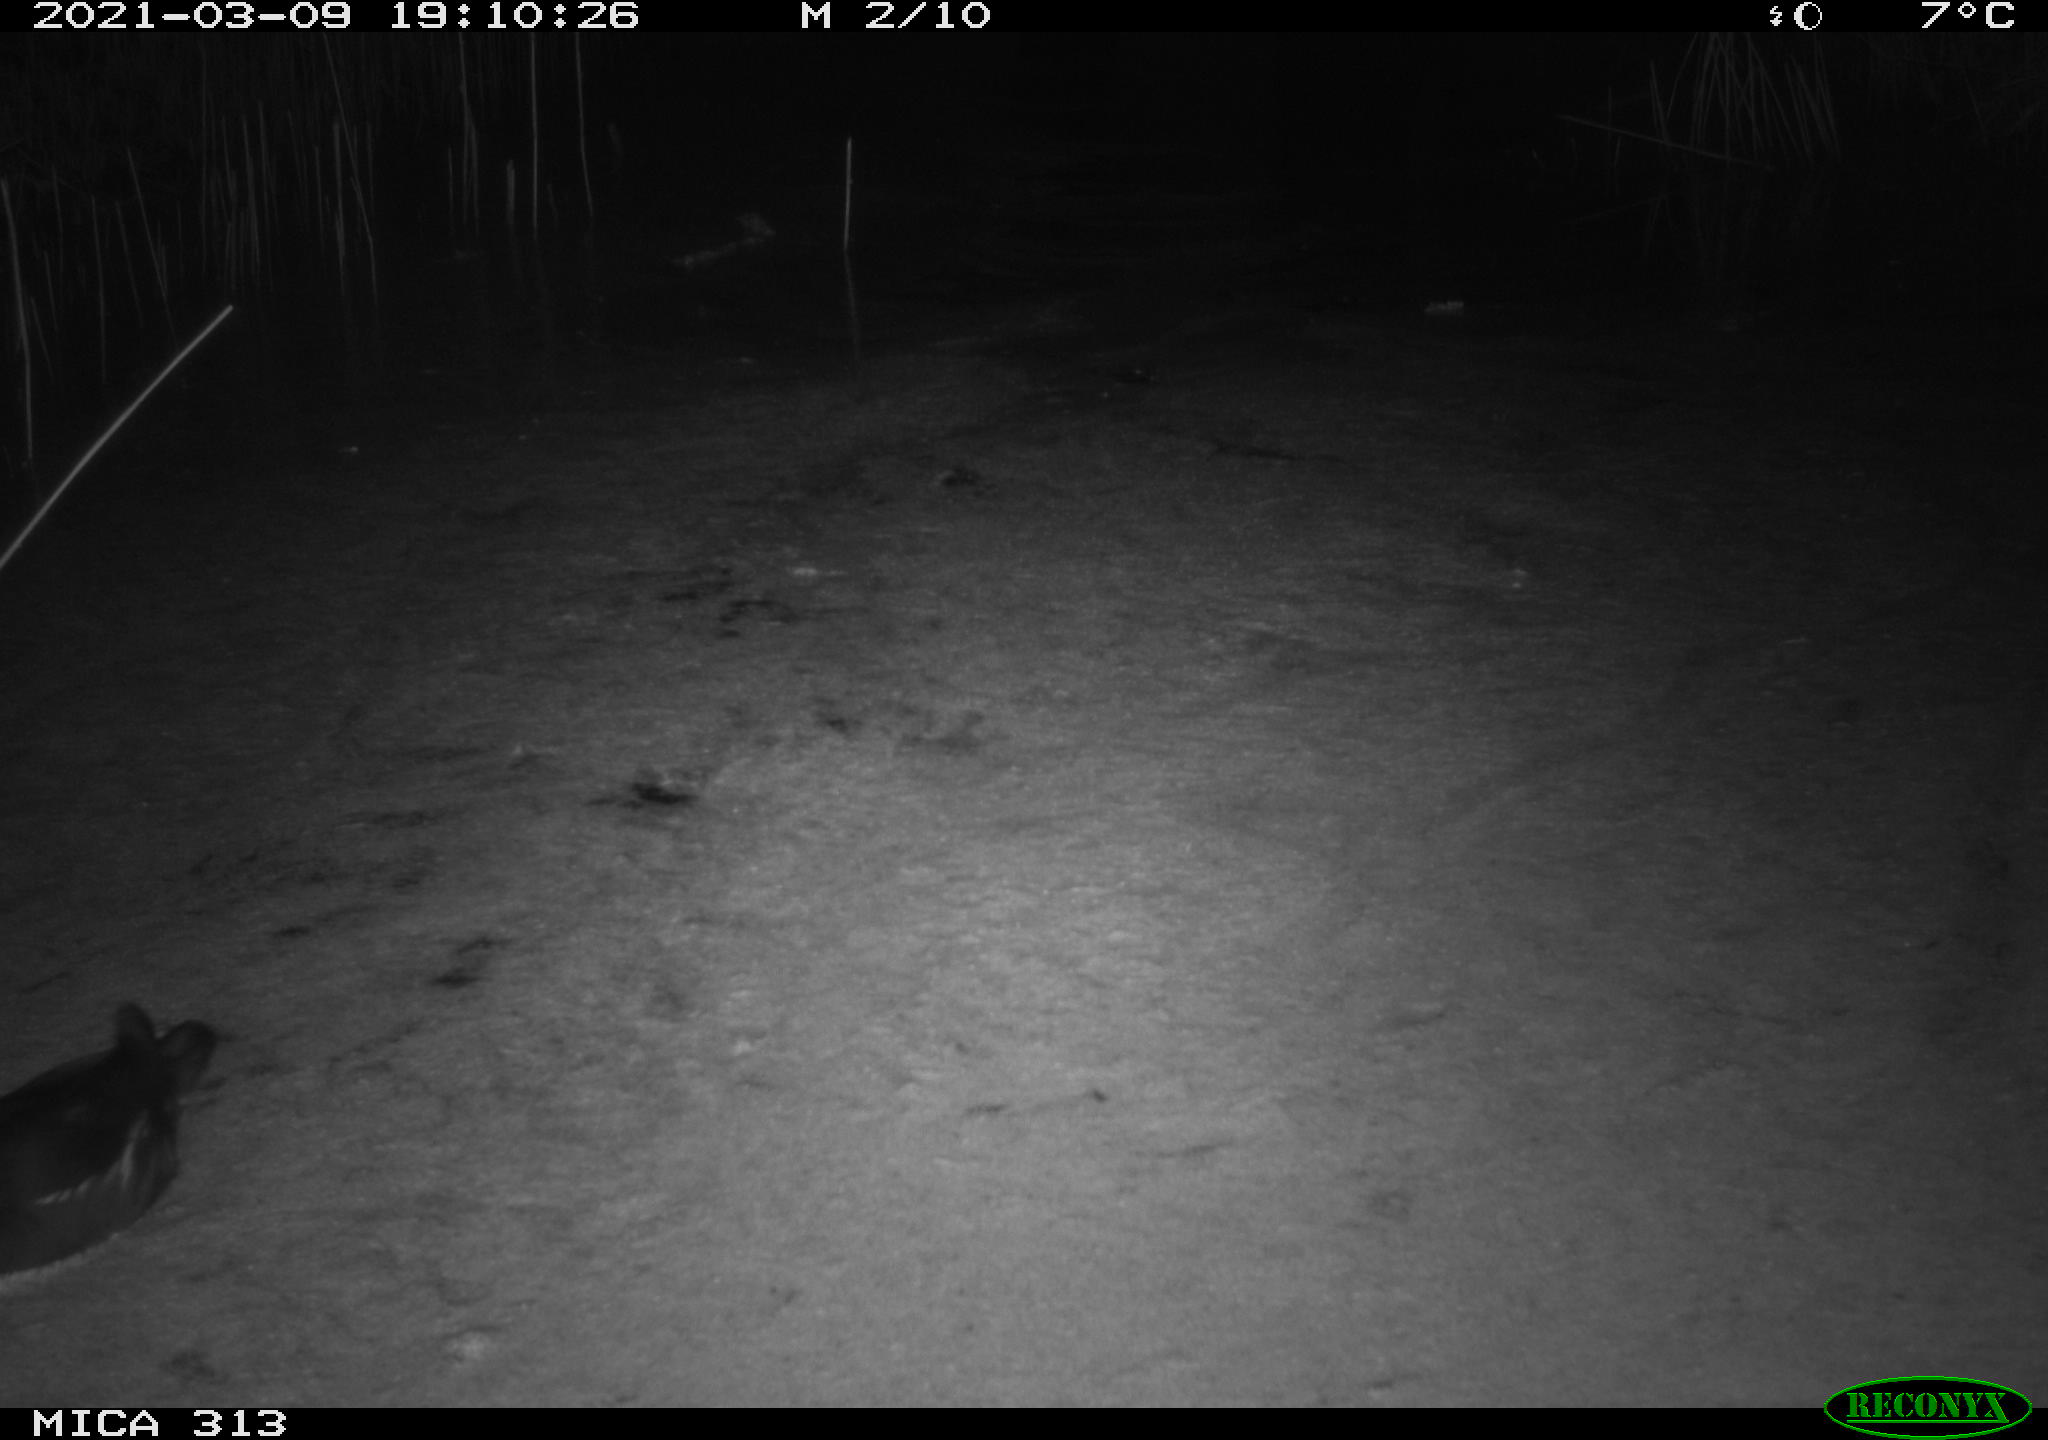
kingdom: Animalia
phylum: Chordata
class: Aves
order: Gruiformes
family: Rallidae
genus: Gallinula
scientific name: Gallinula chloropus
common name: Common moorhen
